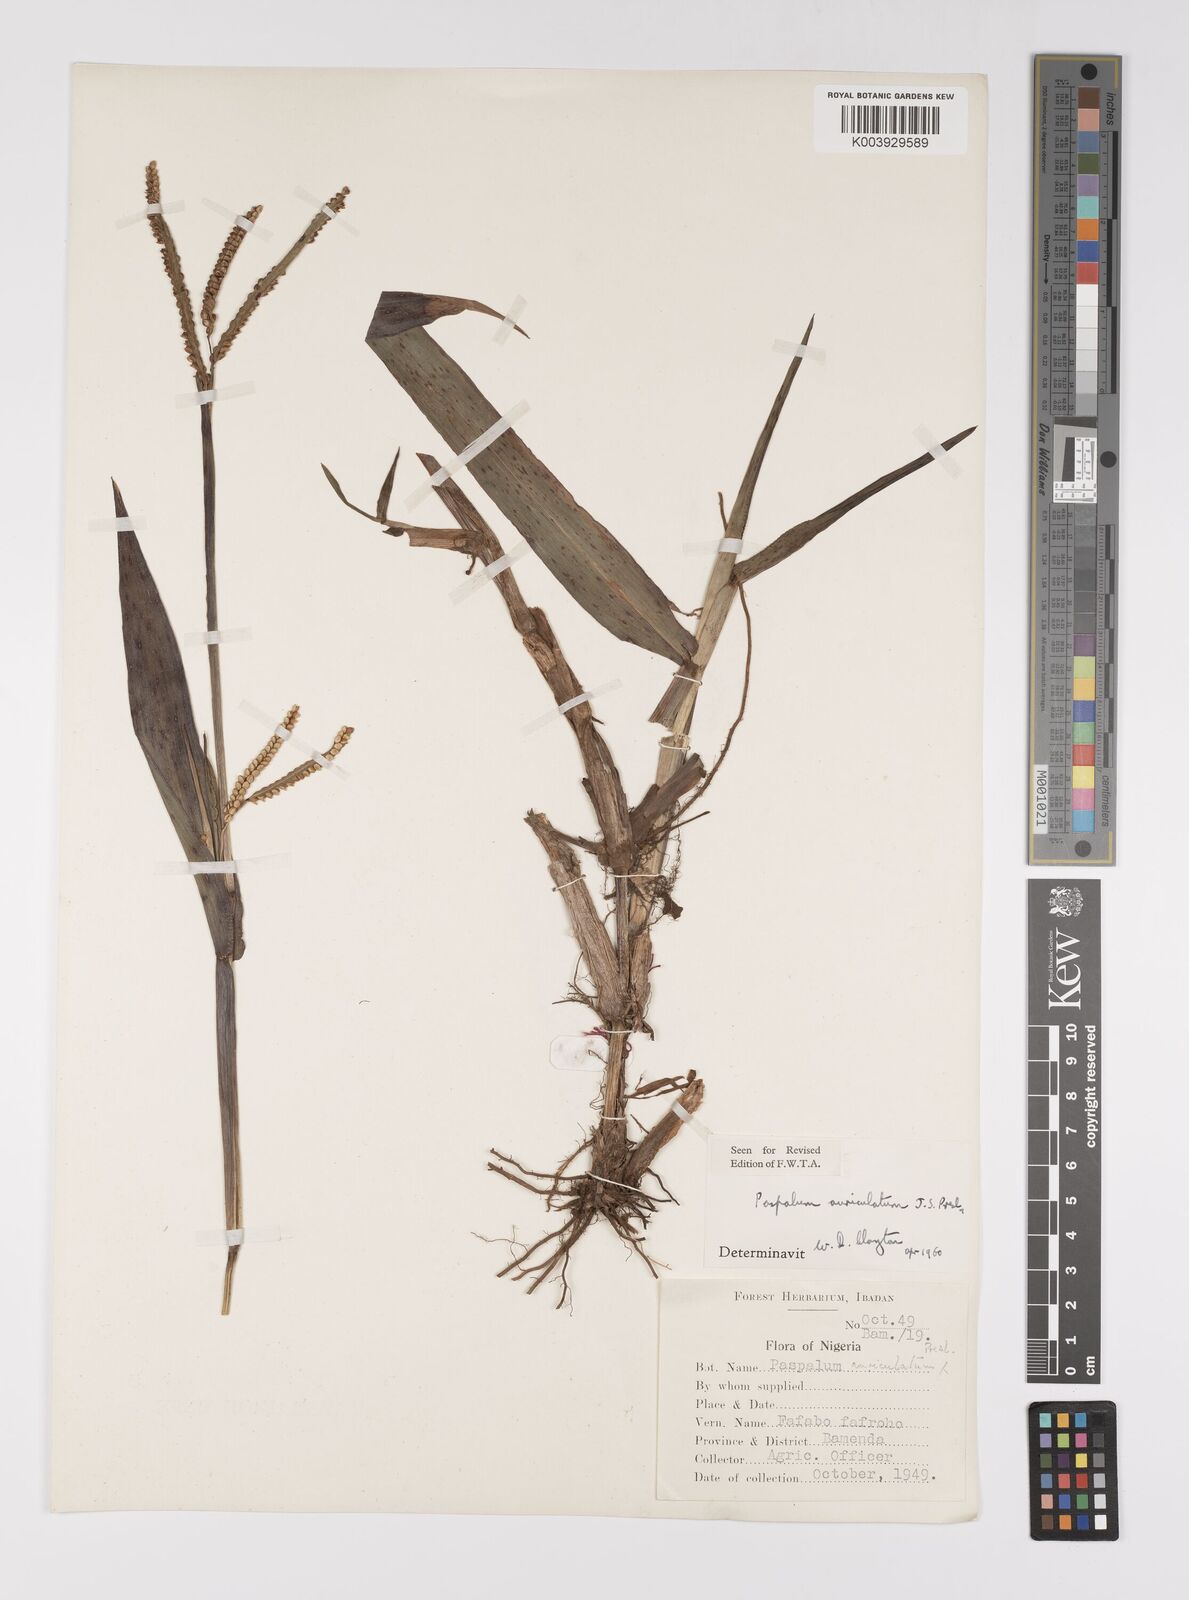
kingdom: Plantae
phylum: Tracheophyta
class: Liliopsida
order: Poales
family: Poaceae
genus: Paspalum
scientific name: Paspalum lamprocaryon
